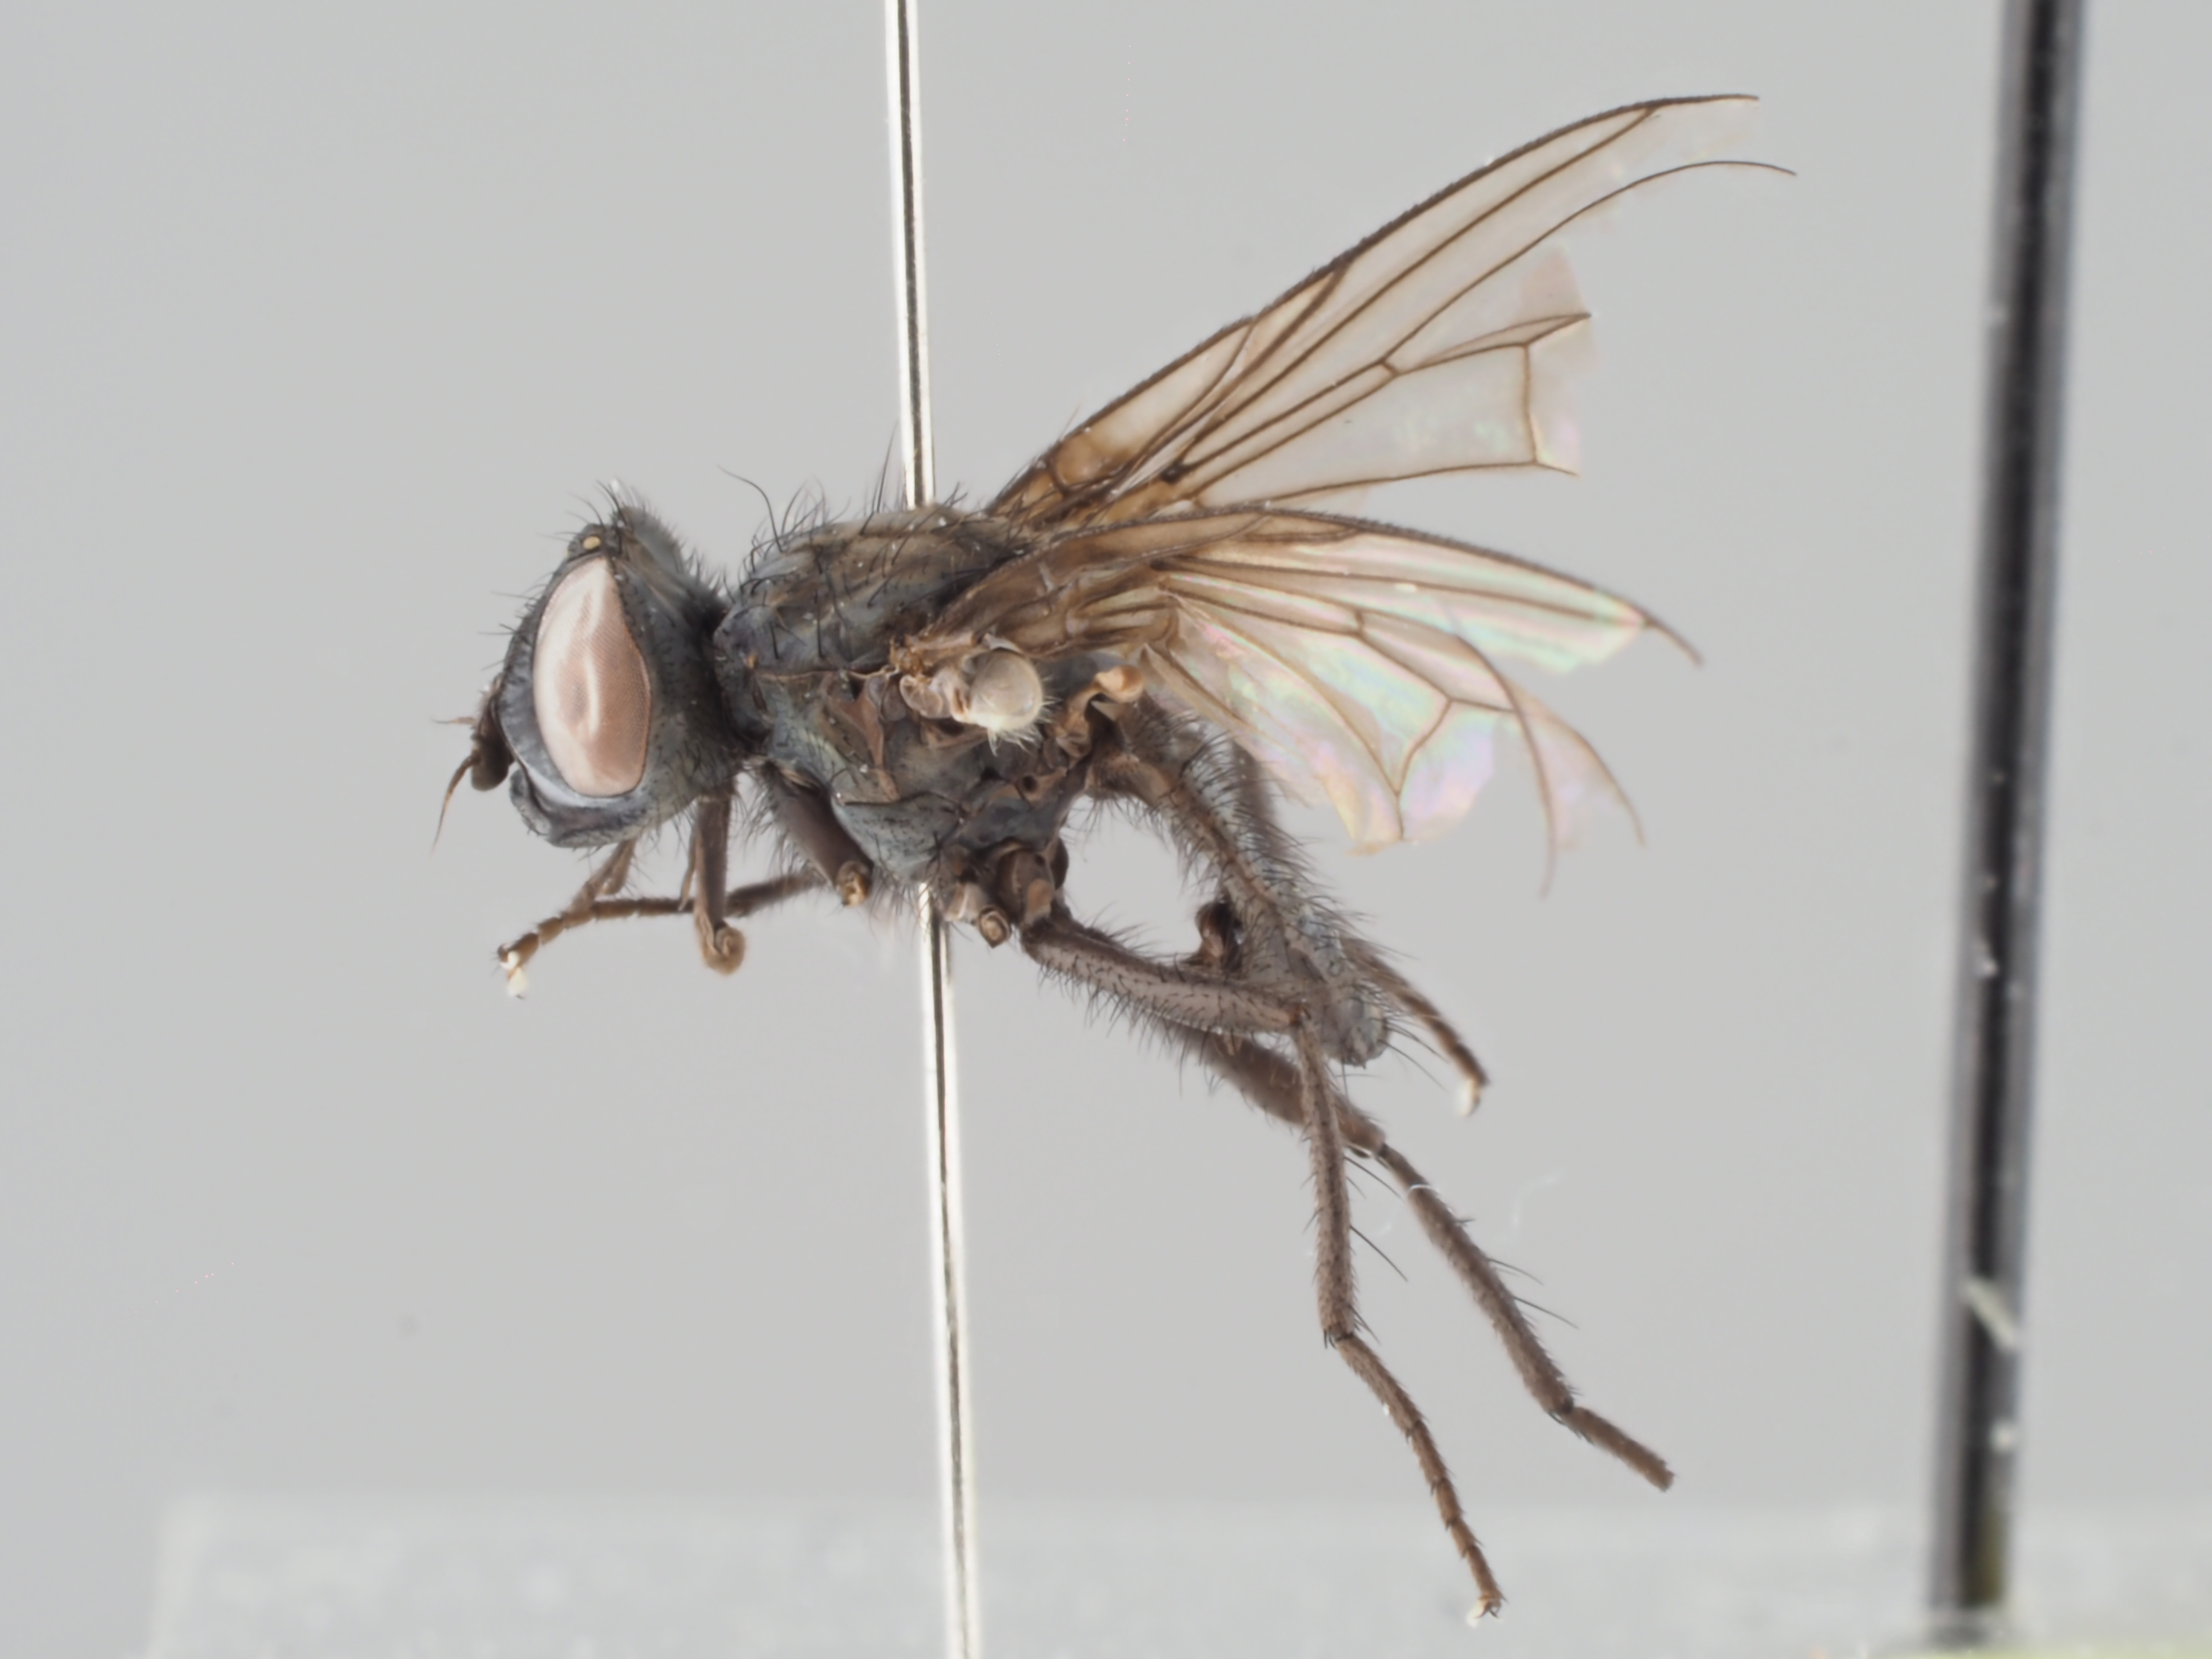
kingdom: Animalia
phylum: Arthropoda
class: Insecta
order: Diptera
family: Empididae
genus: Hilara
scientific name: Hilara cornicula
